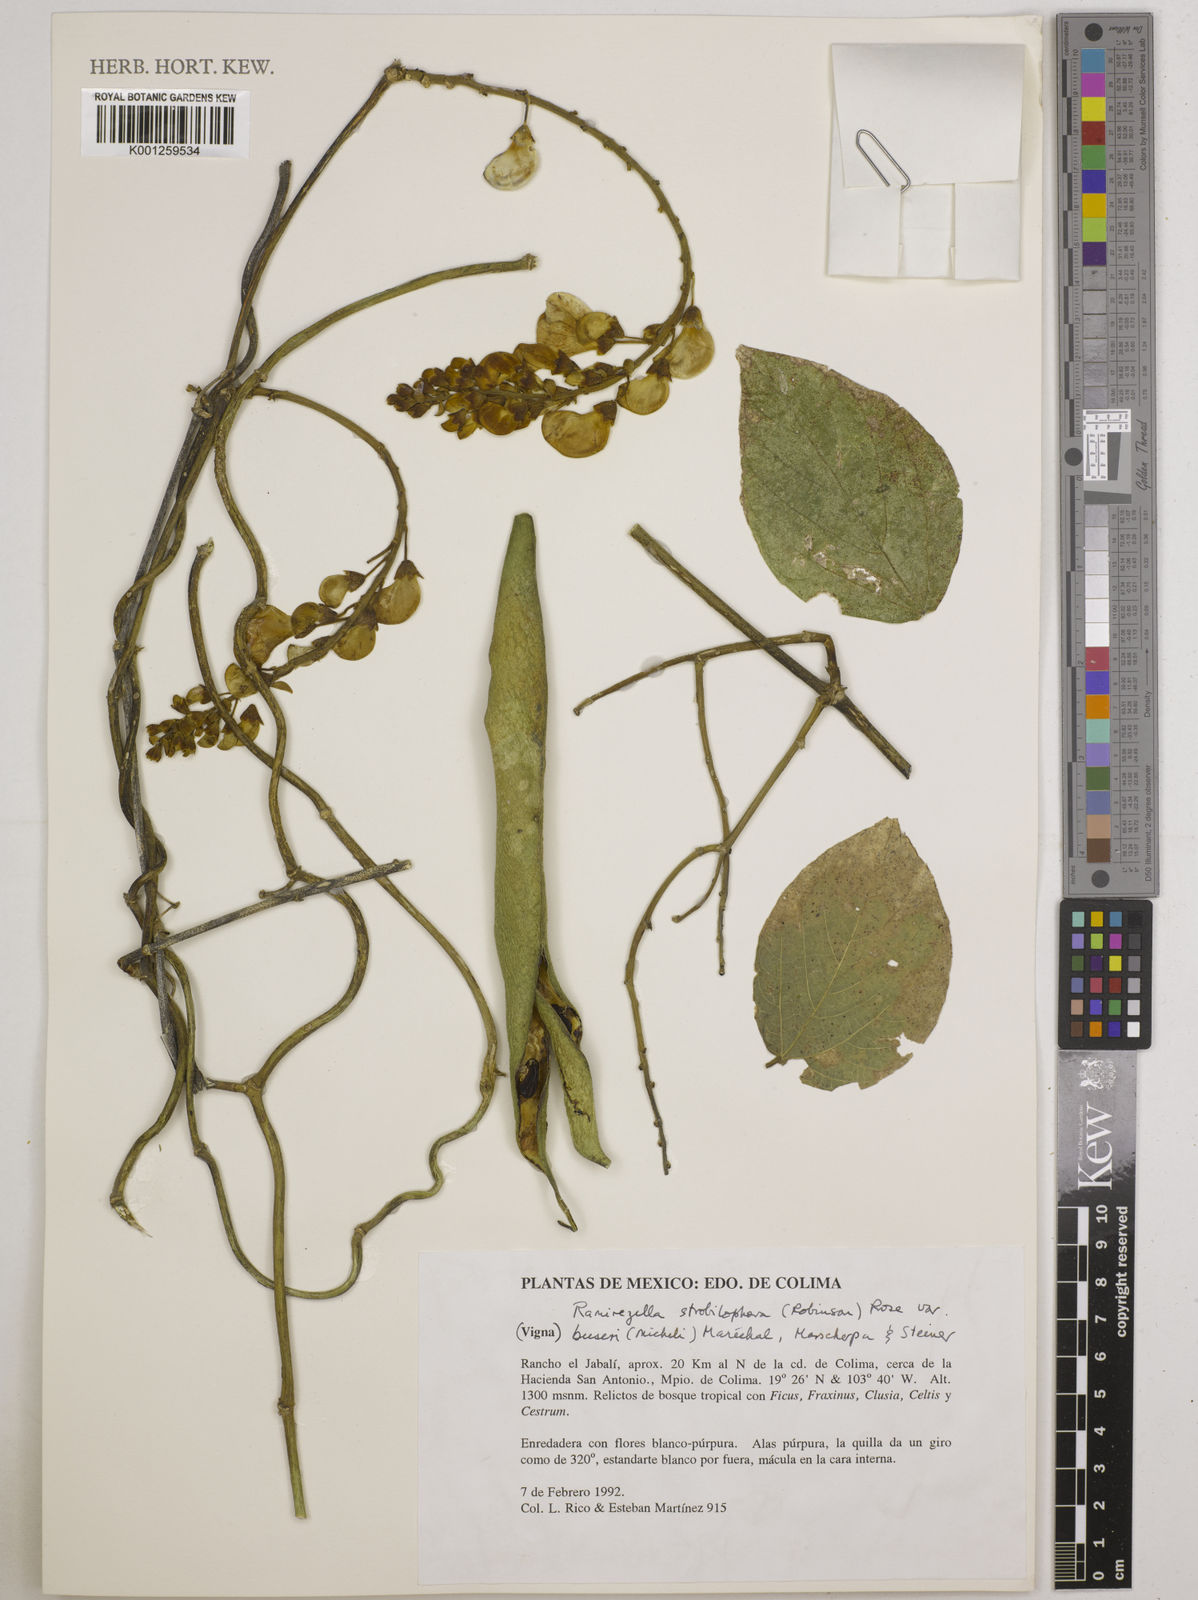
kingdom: Plantae
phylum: Tracheophyta
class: Magnoliopsida
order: Fabales
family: Fabaceae
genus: Ramirezella
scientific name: Ramirezella strobilophora
